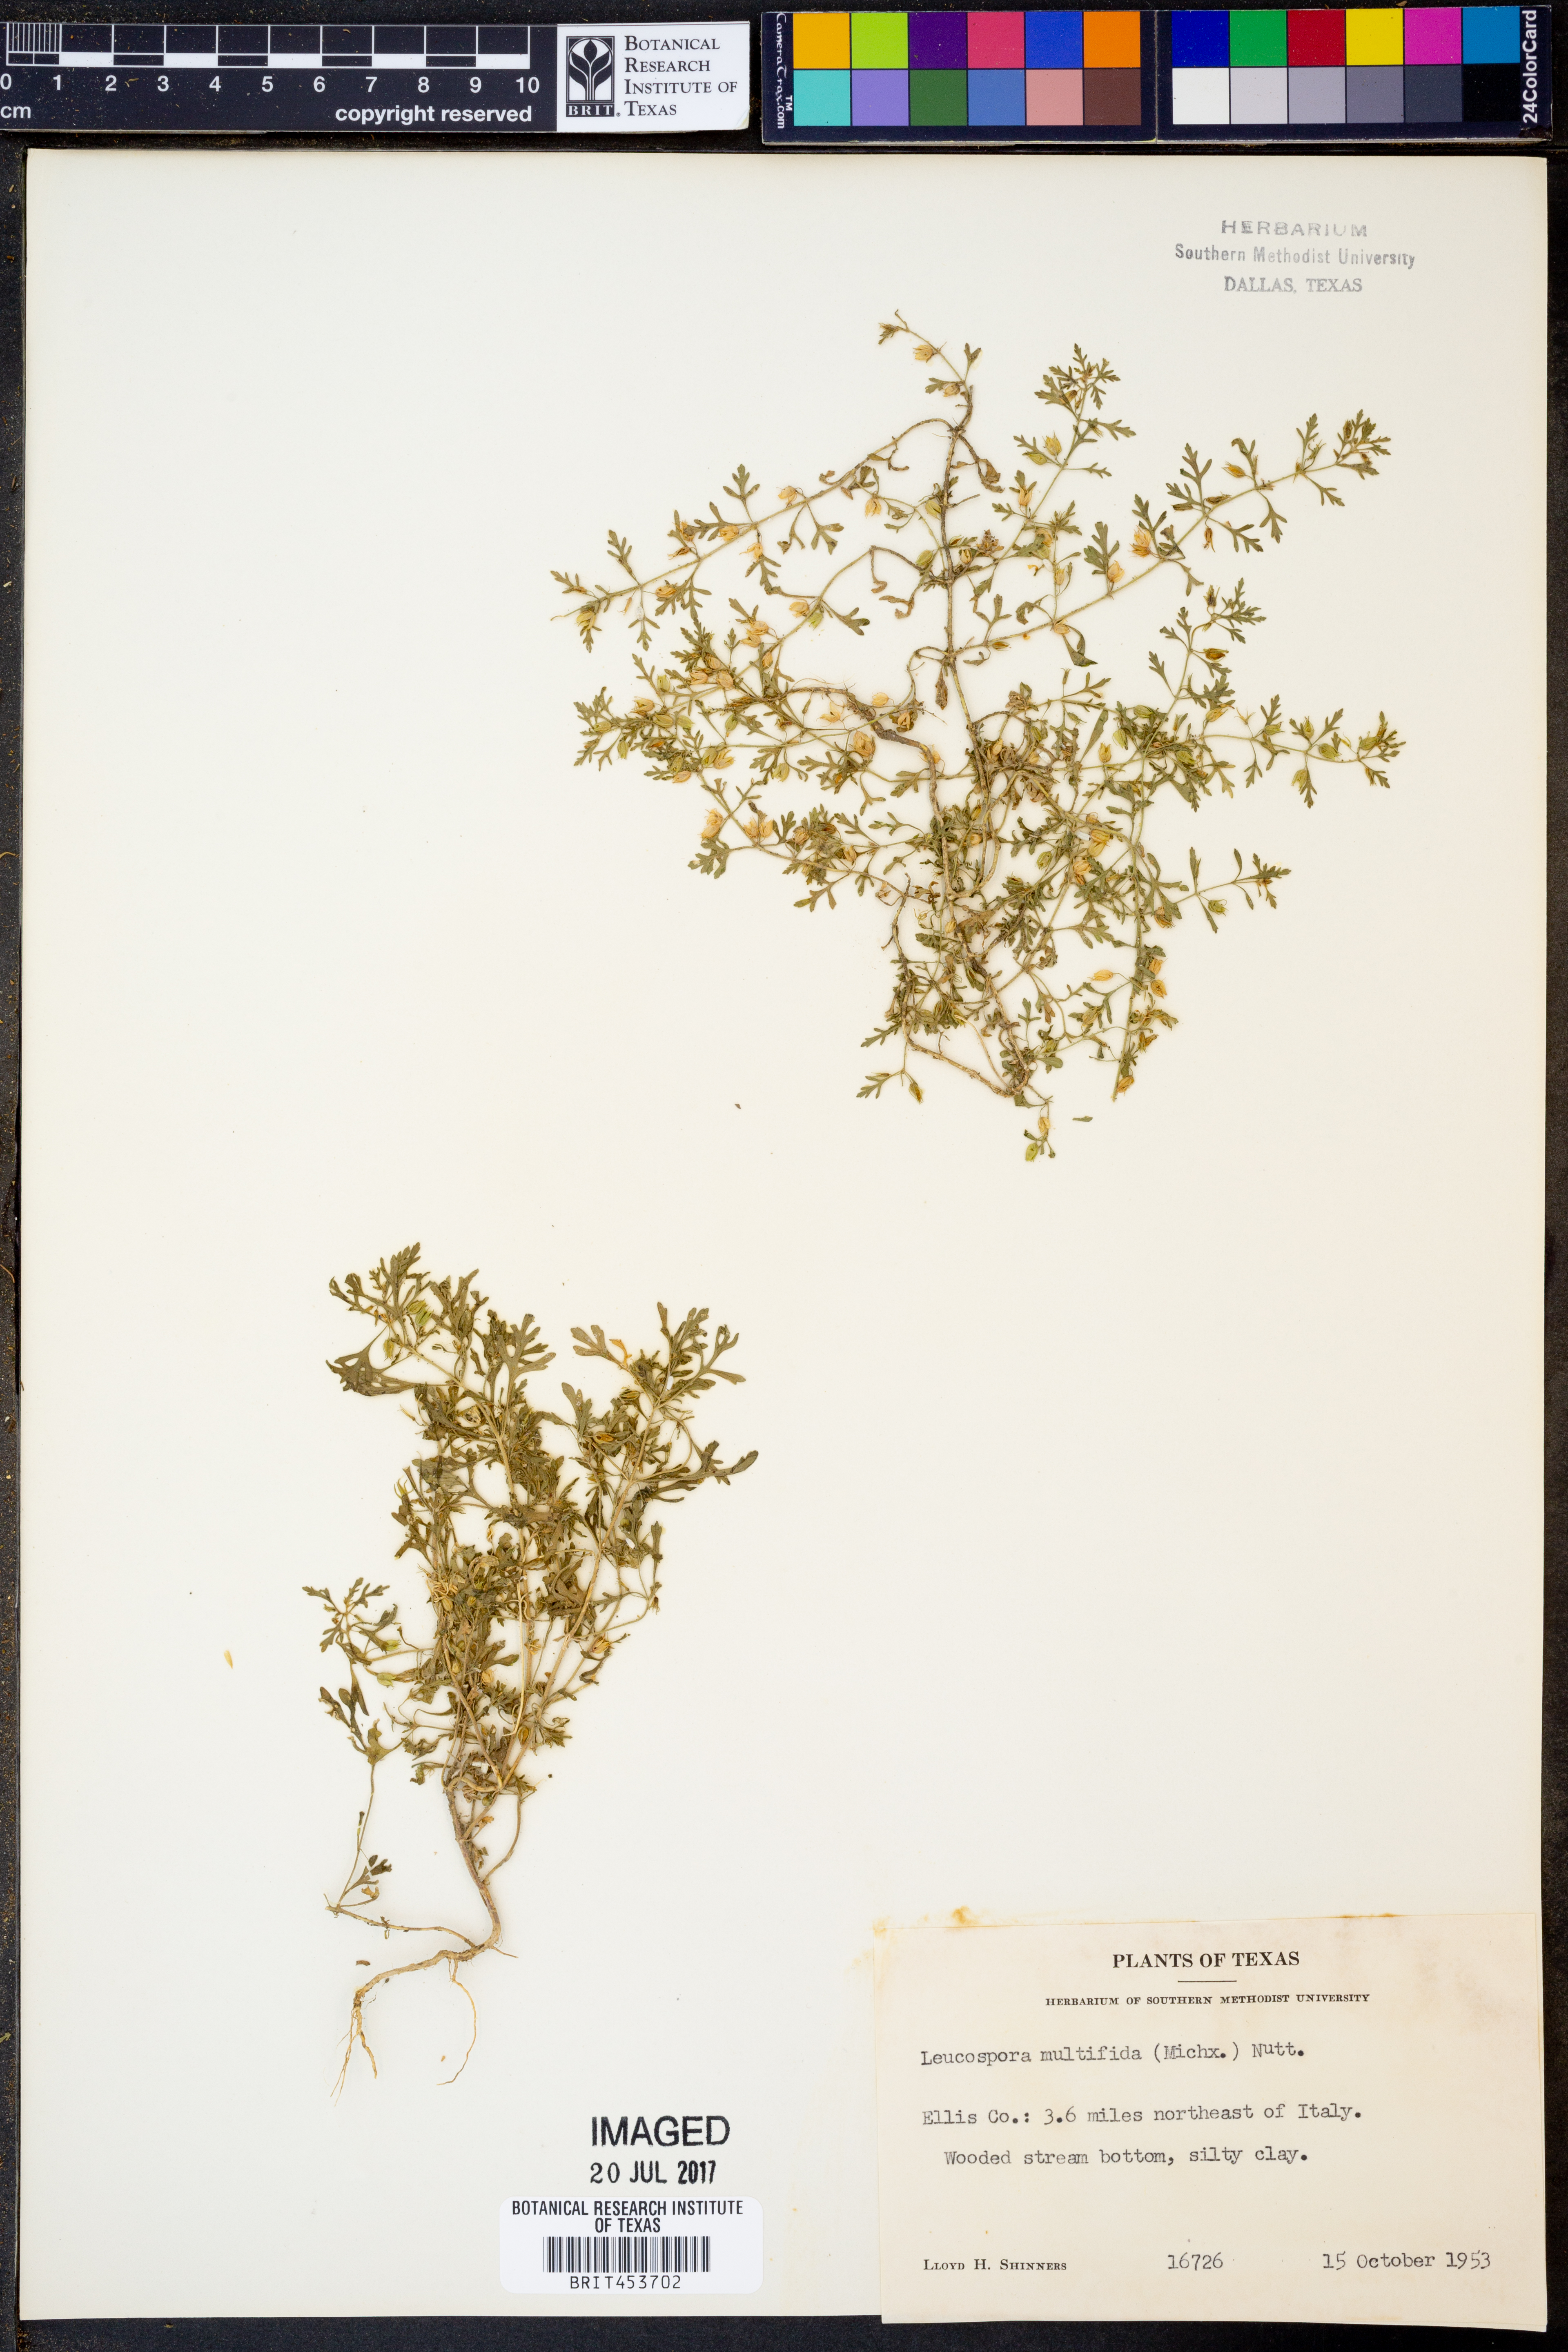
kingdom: Plantae
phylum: Tracheophyta
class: Magnoliopsida
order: Lamiales
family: Plantaginaceae
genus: Leucospora
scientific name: Leucospora multifida
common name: Narrow-leaf paleseed
